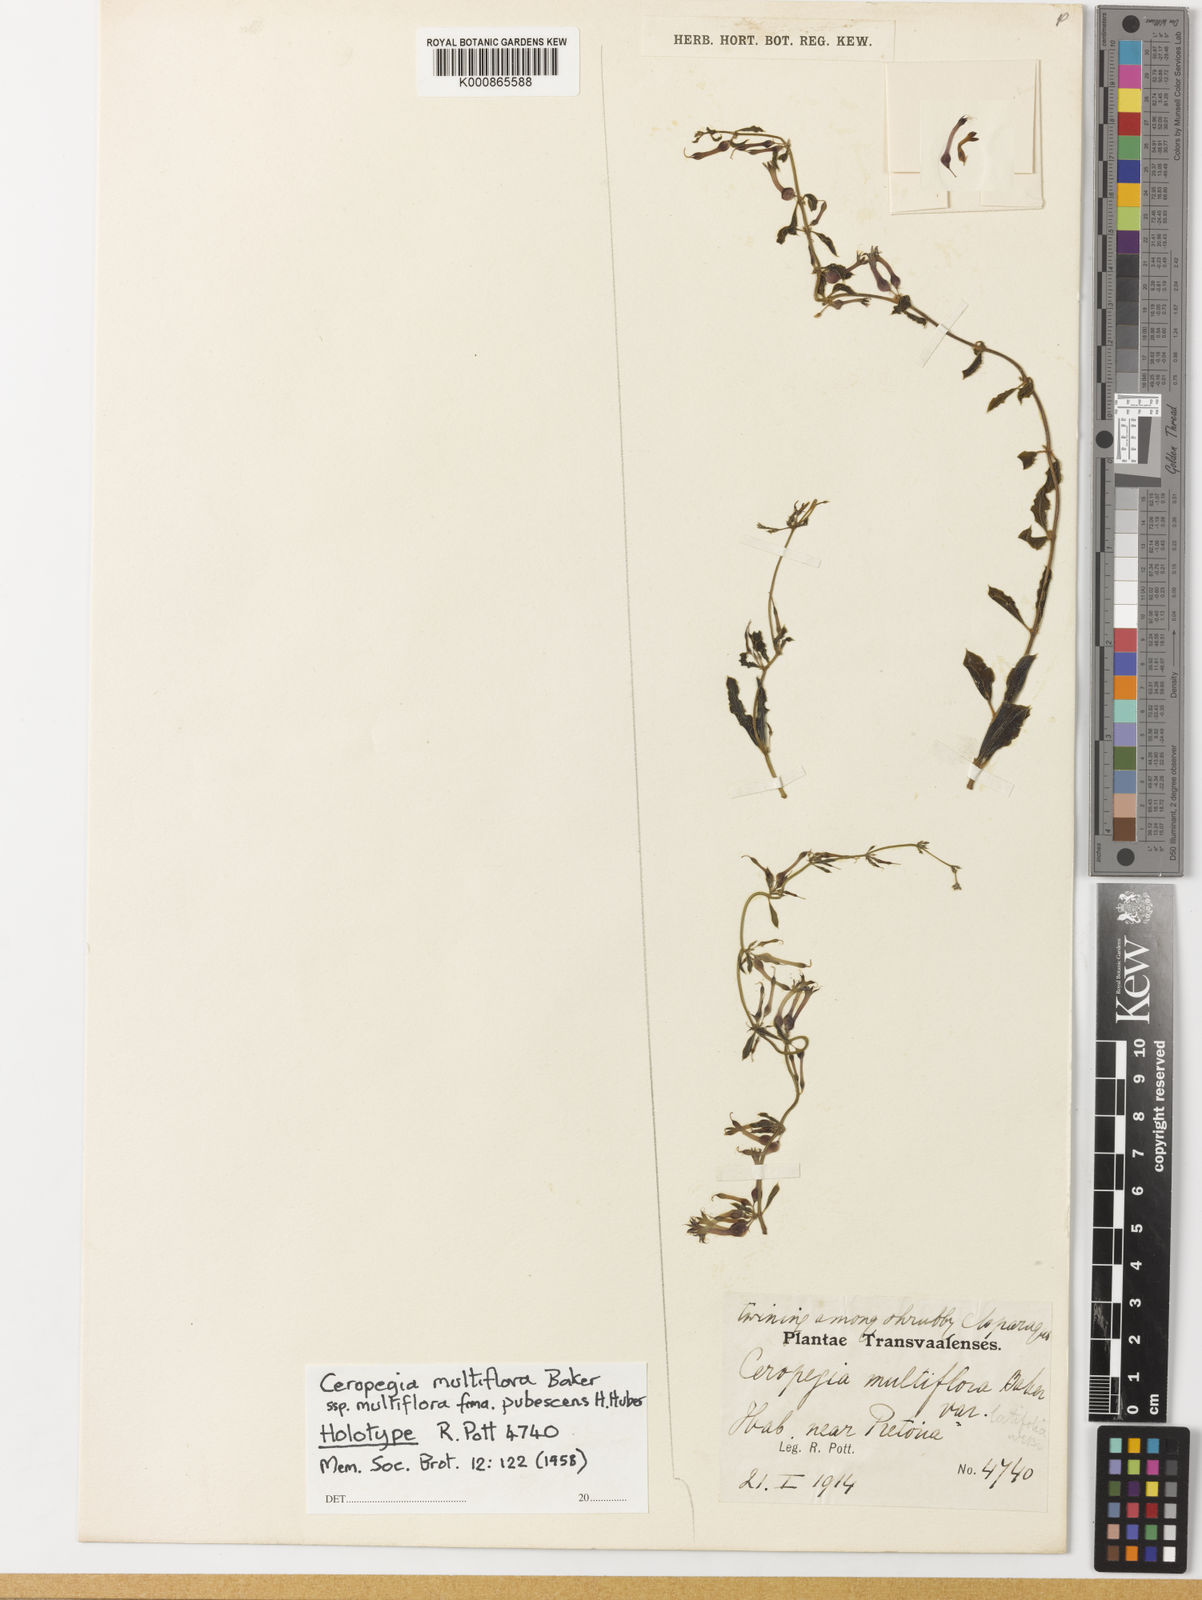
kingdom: Plantae
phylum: Tracheophyta
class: Magnoliopsida
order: Gentianales
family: Apocynaceae
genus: Ceropegia
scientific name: Ceropegia multiflora
